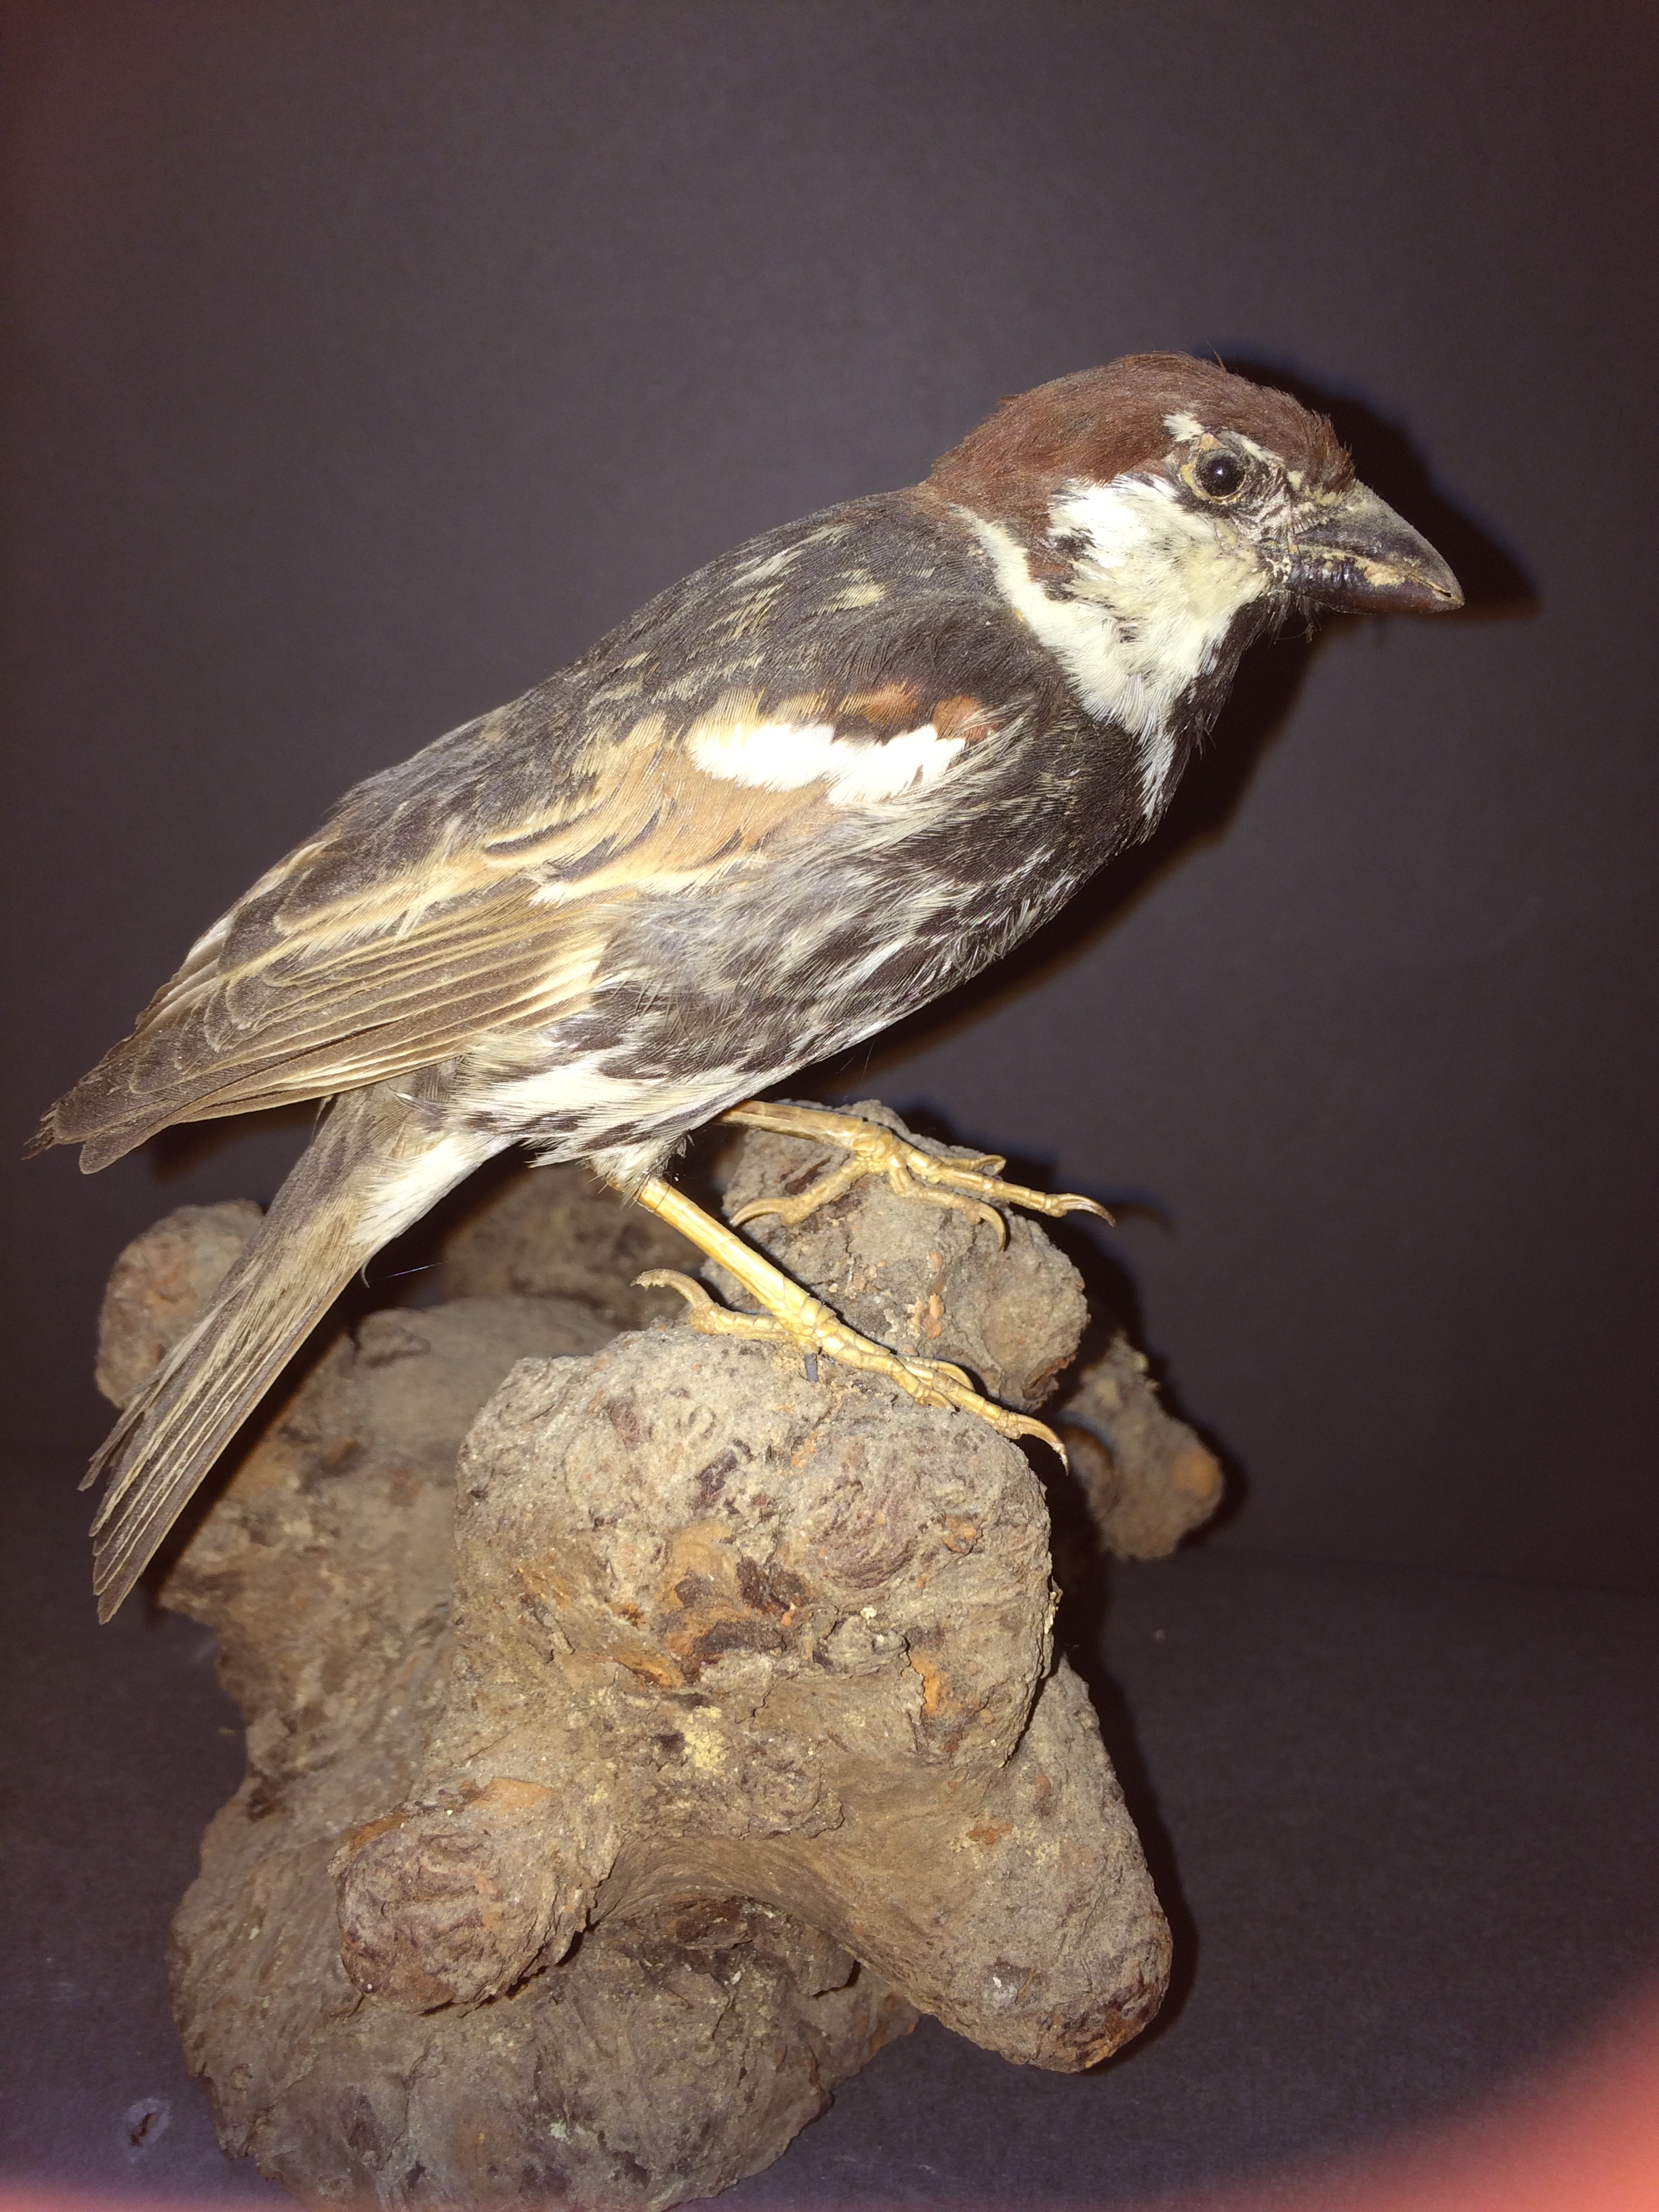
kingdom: Animalia
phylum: Chordata
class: Aves
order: Passeriformes
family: Passeridae
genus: Passer
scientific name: Passer hispaniolensis
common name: Spanish sparrow
